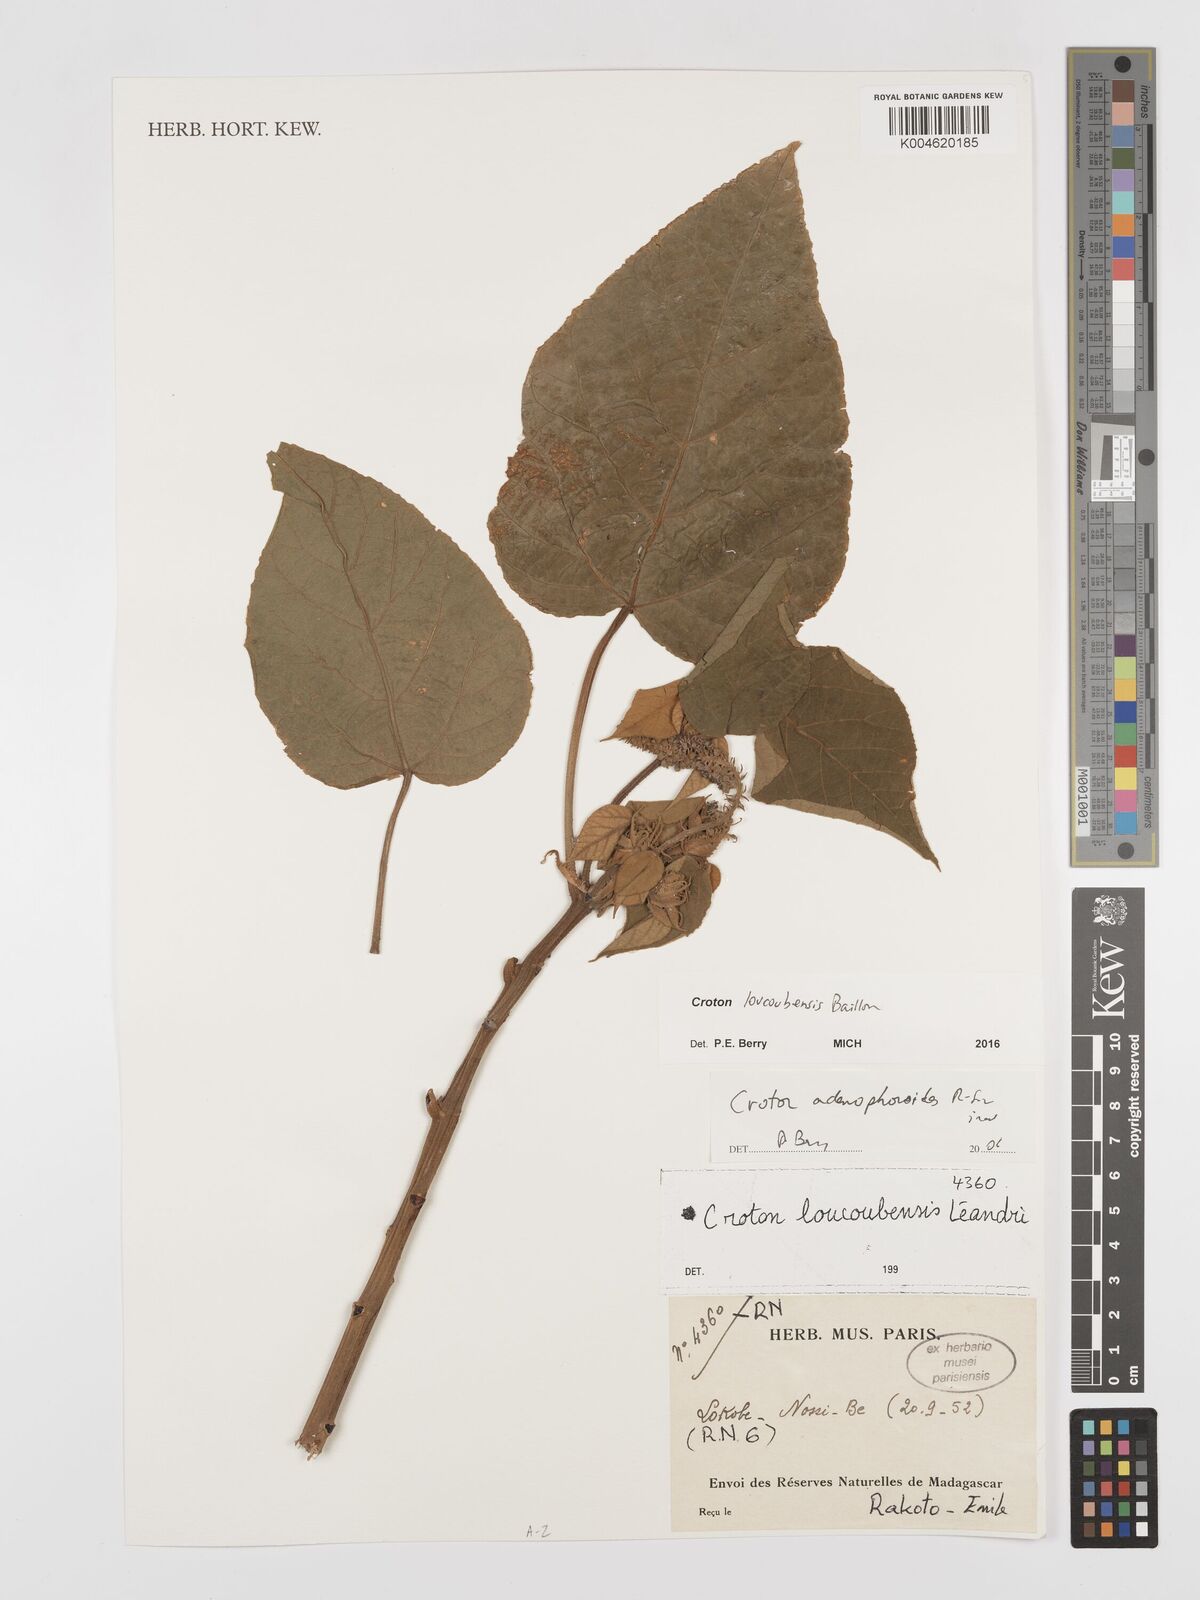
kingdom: Plantae
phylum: Tracheophyta
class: Magnoliopsida
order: Malpighiales
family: Euphorbiaceae
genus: Croton
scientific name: Croton loucoubensis
